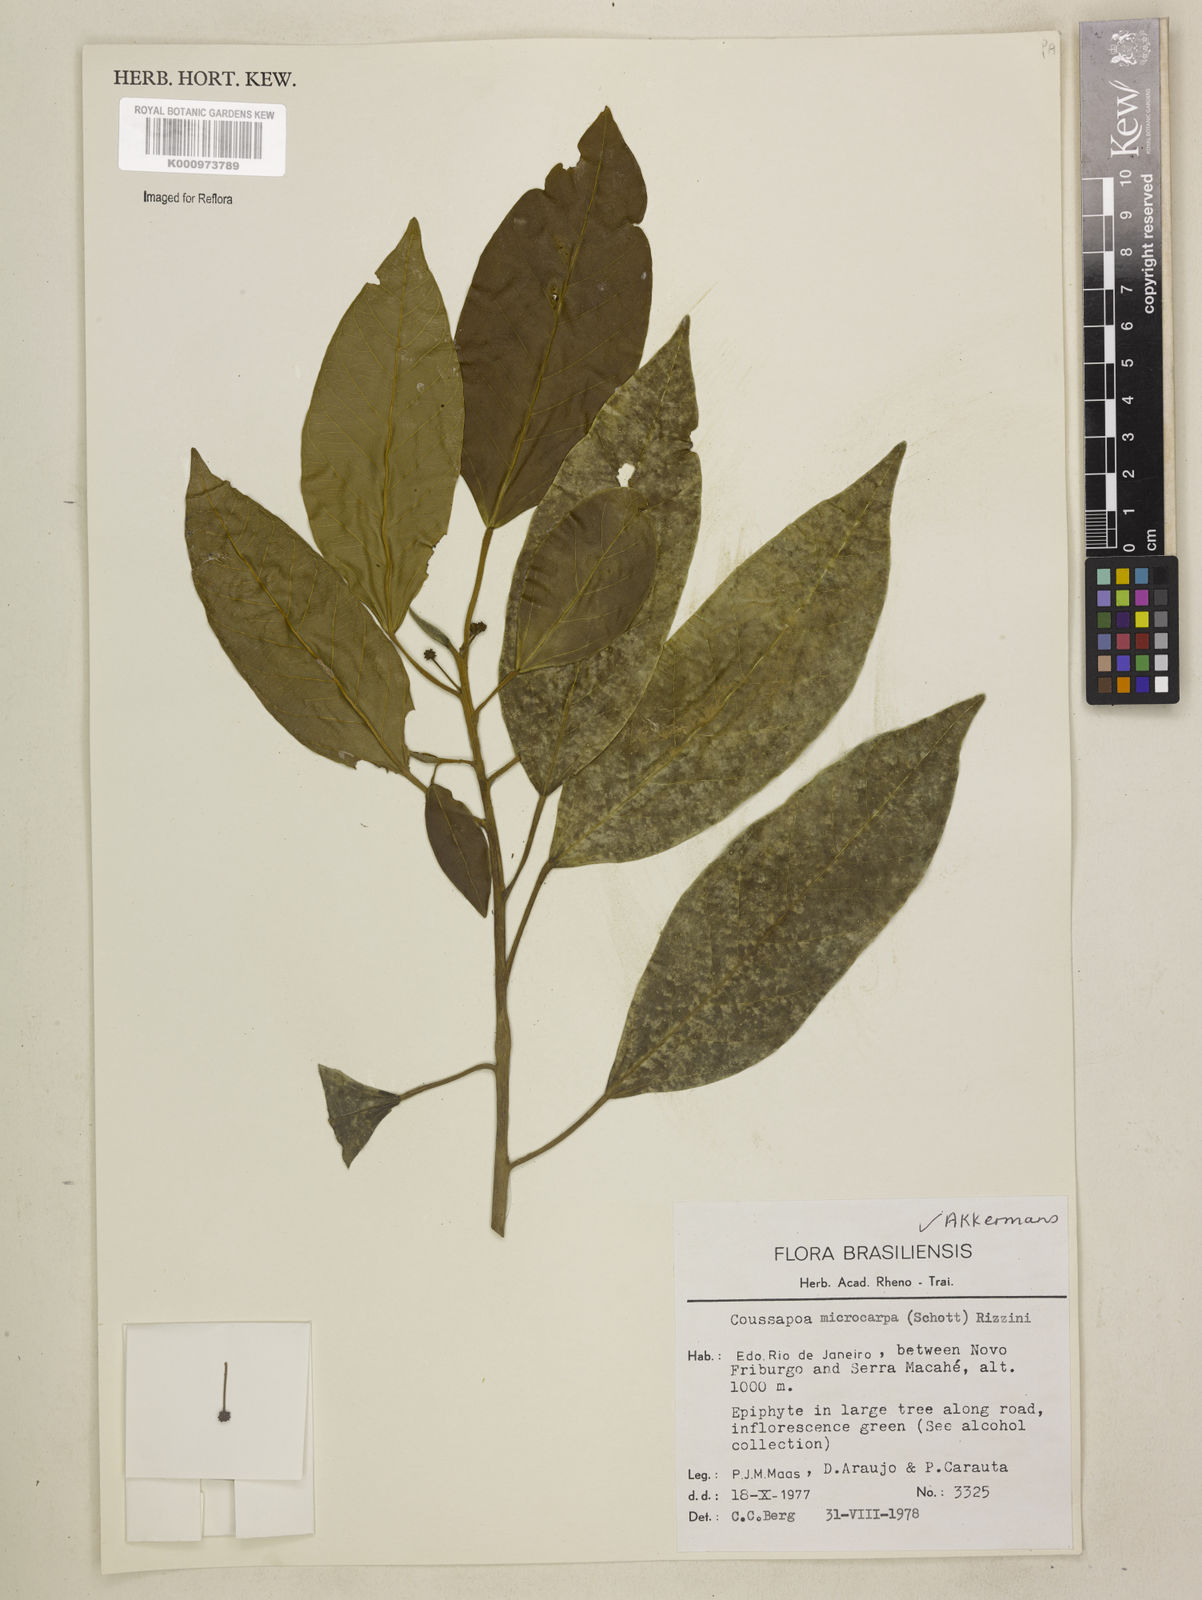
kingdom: Plantae
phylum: Tracheophyta
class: Magnoliopsida
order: Rosales
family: Urticaceae
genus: Coussapoa
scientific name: Coussapoa microcarpa
